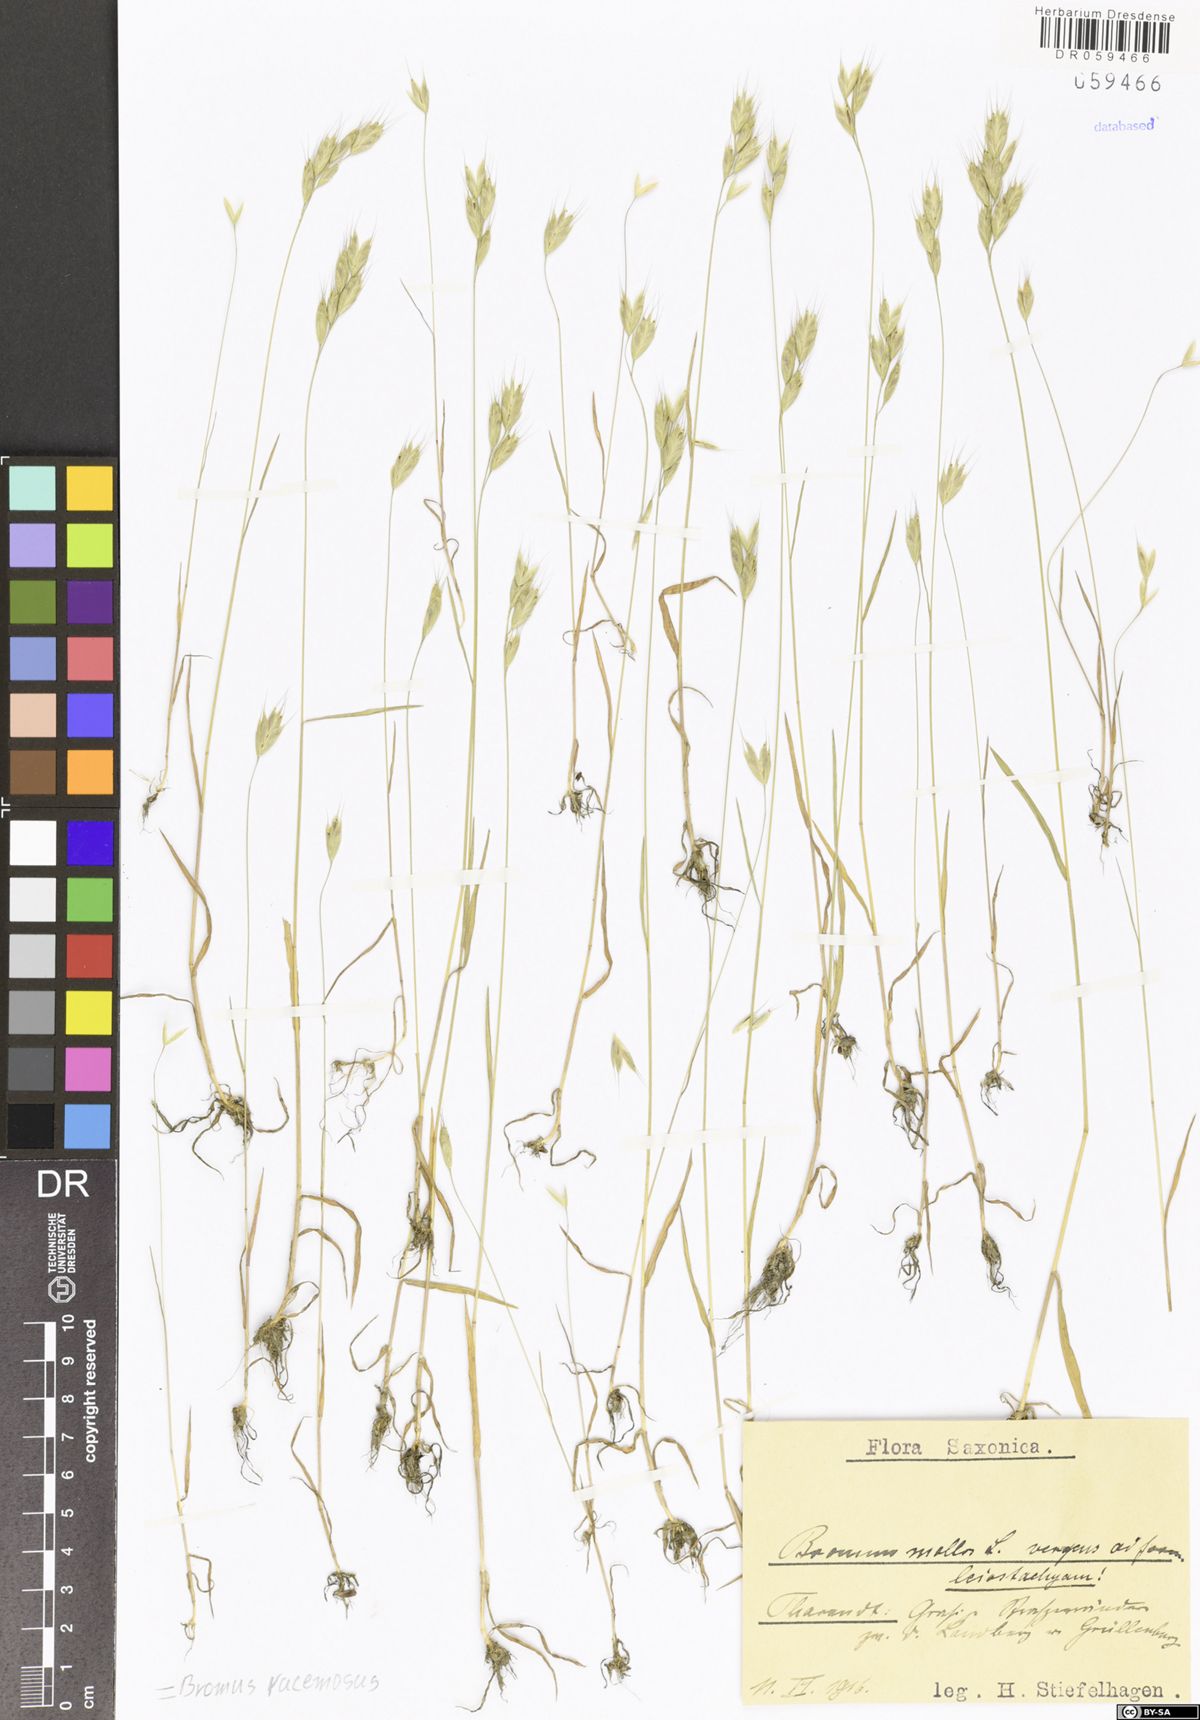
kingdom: Plantae
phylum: Tracheophyta
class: Liliopsida
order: Poales
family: Poaceae
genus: Bromus
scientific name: Bromus racemosus
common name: Bald brome
